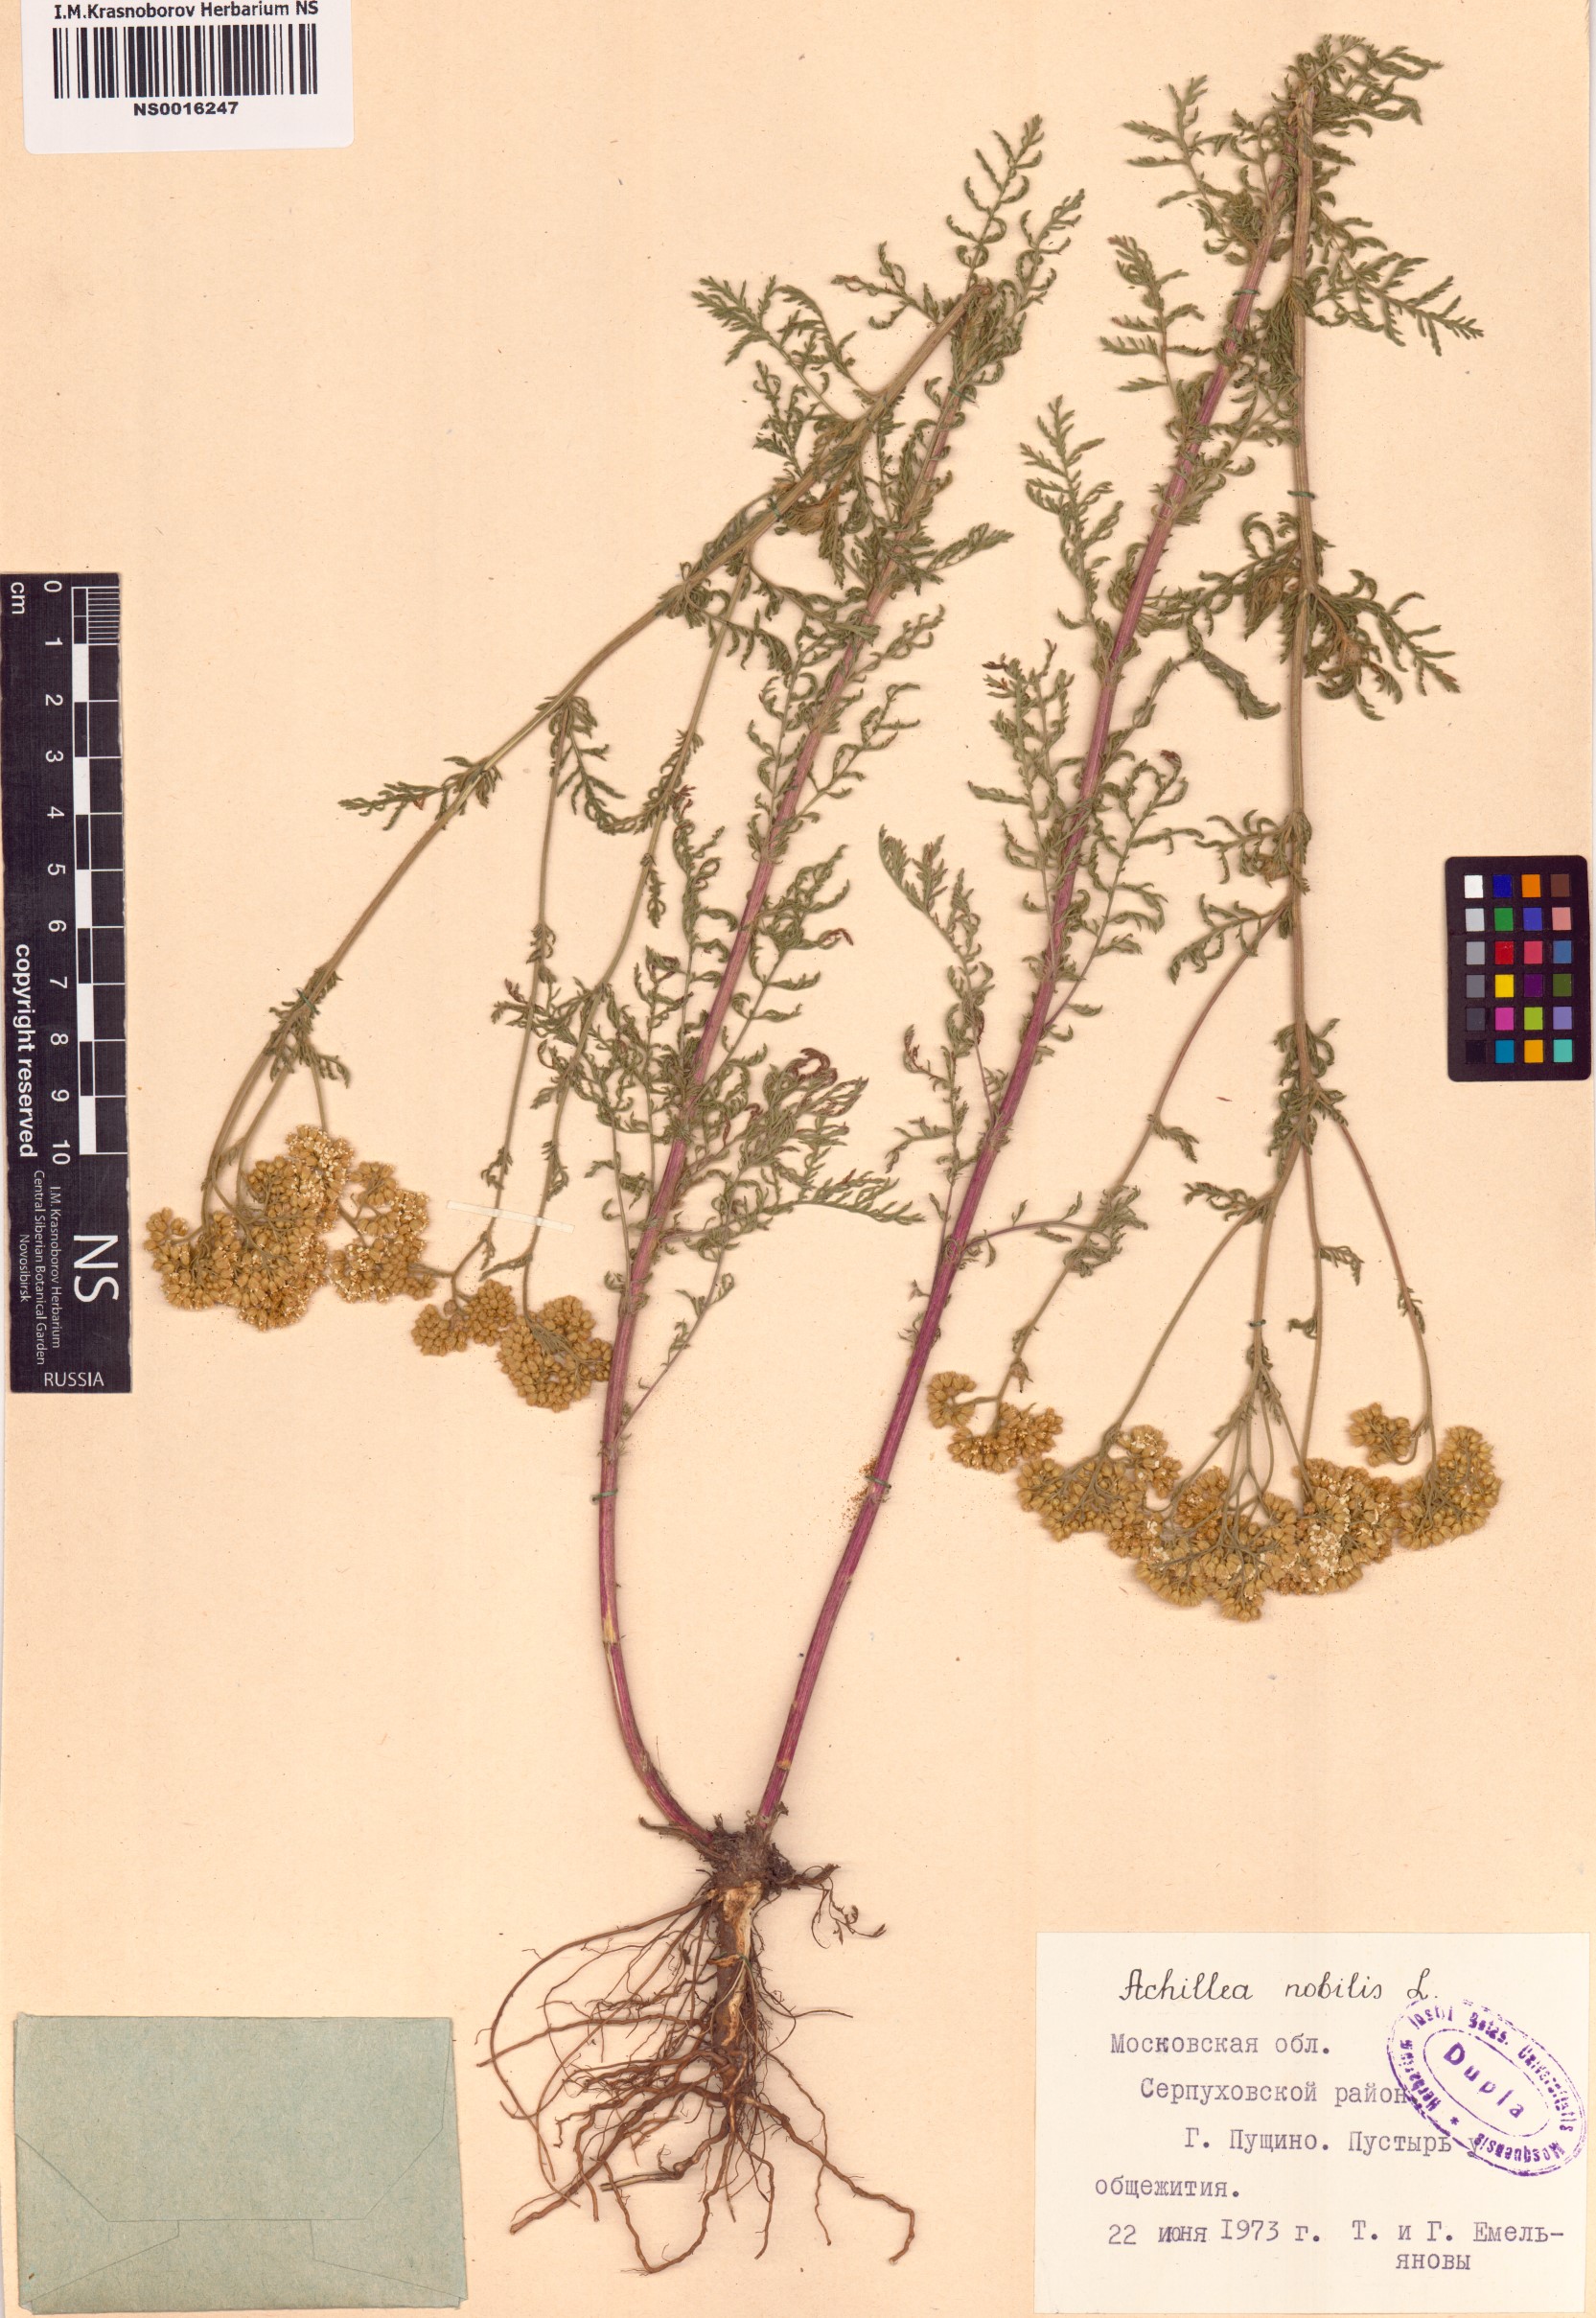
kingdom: Plantae
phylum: Tracheophyta
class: Magnoliopsida
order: Asterales
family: Asteraceae
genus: Achillea
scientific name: Achillea nobilis
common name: Noble yarrow
